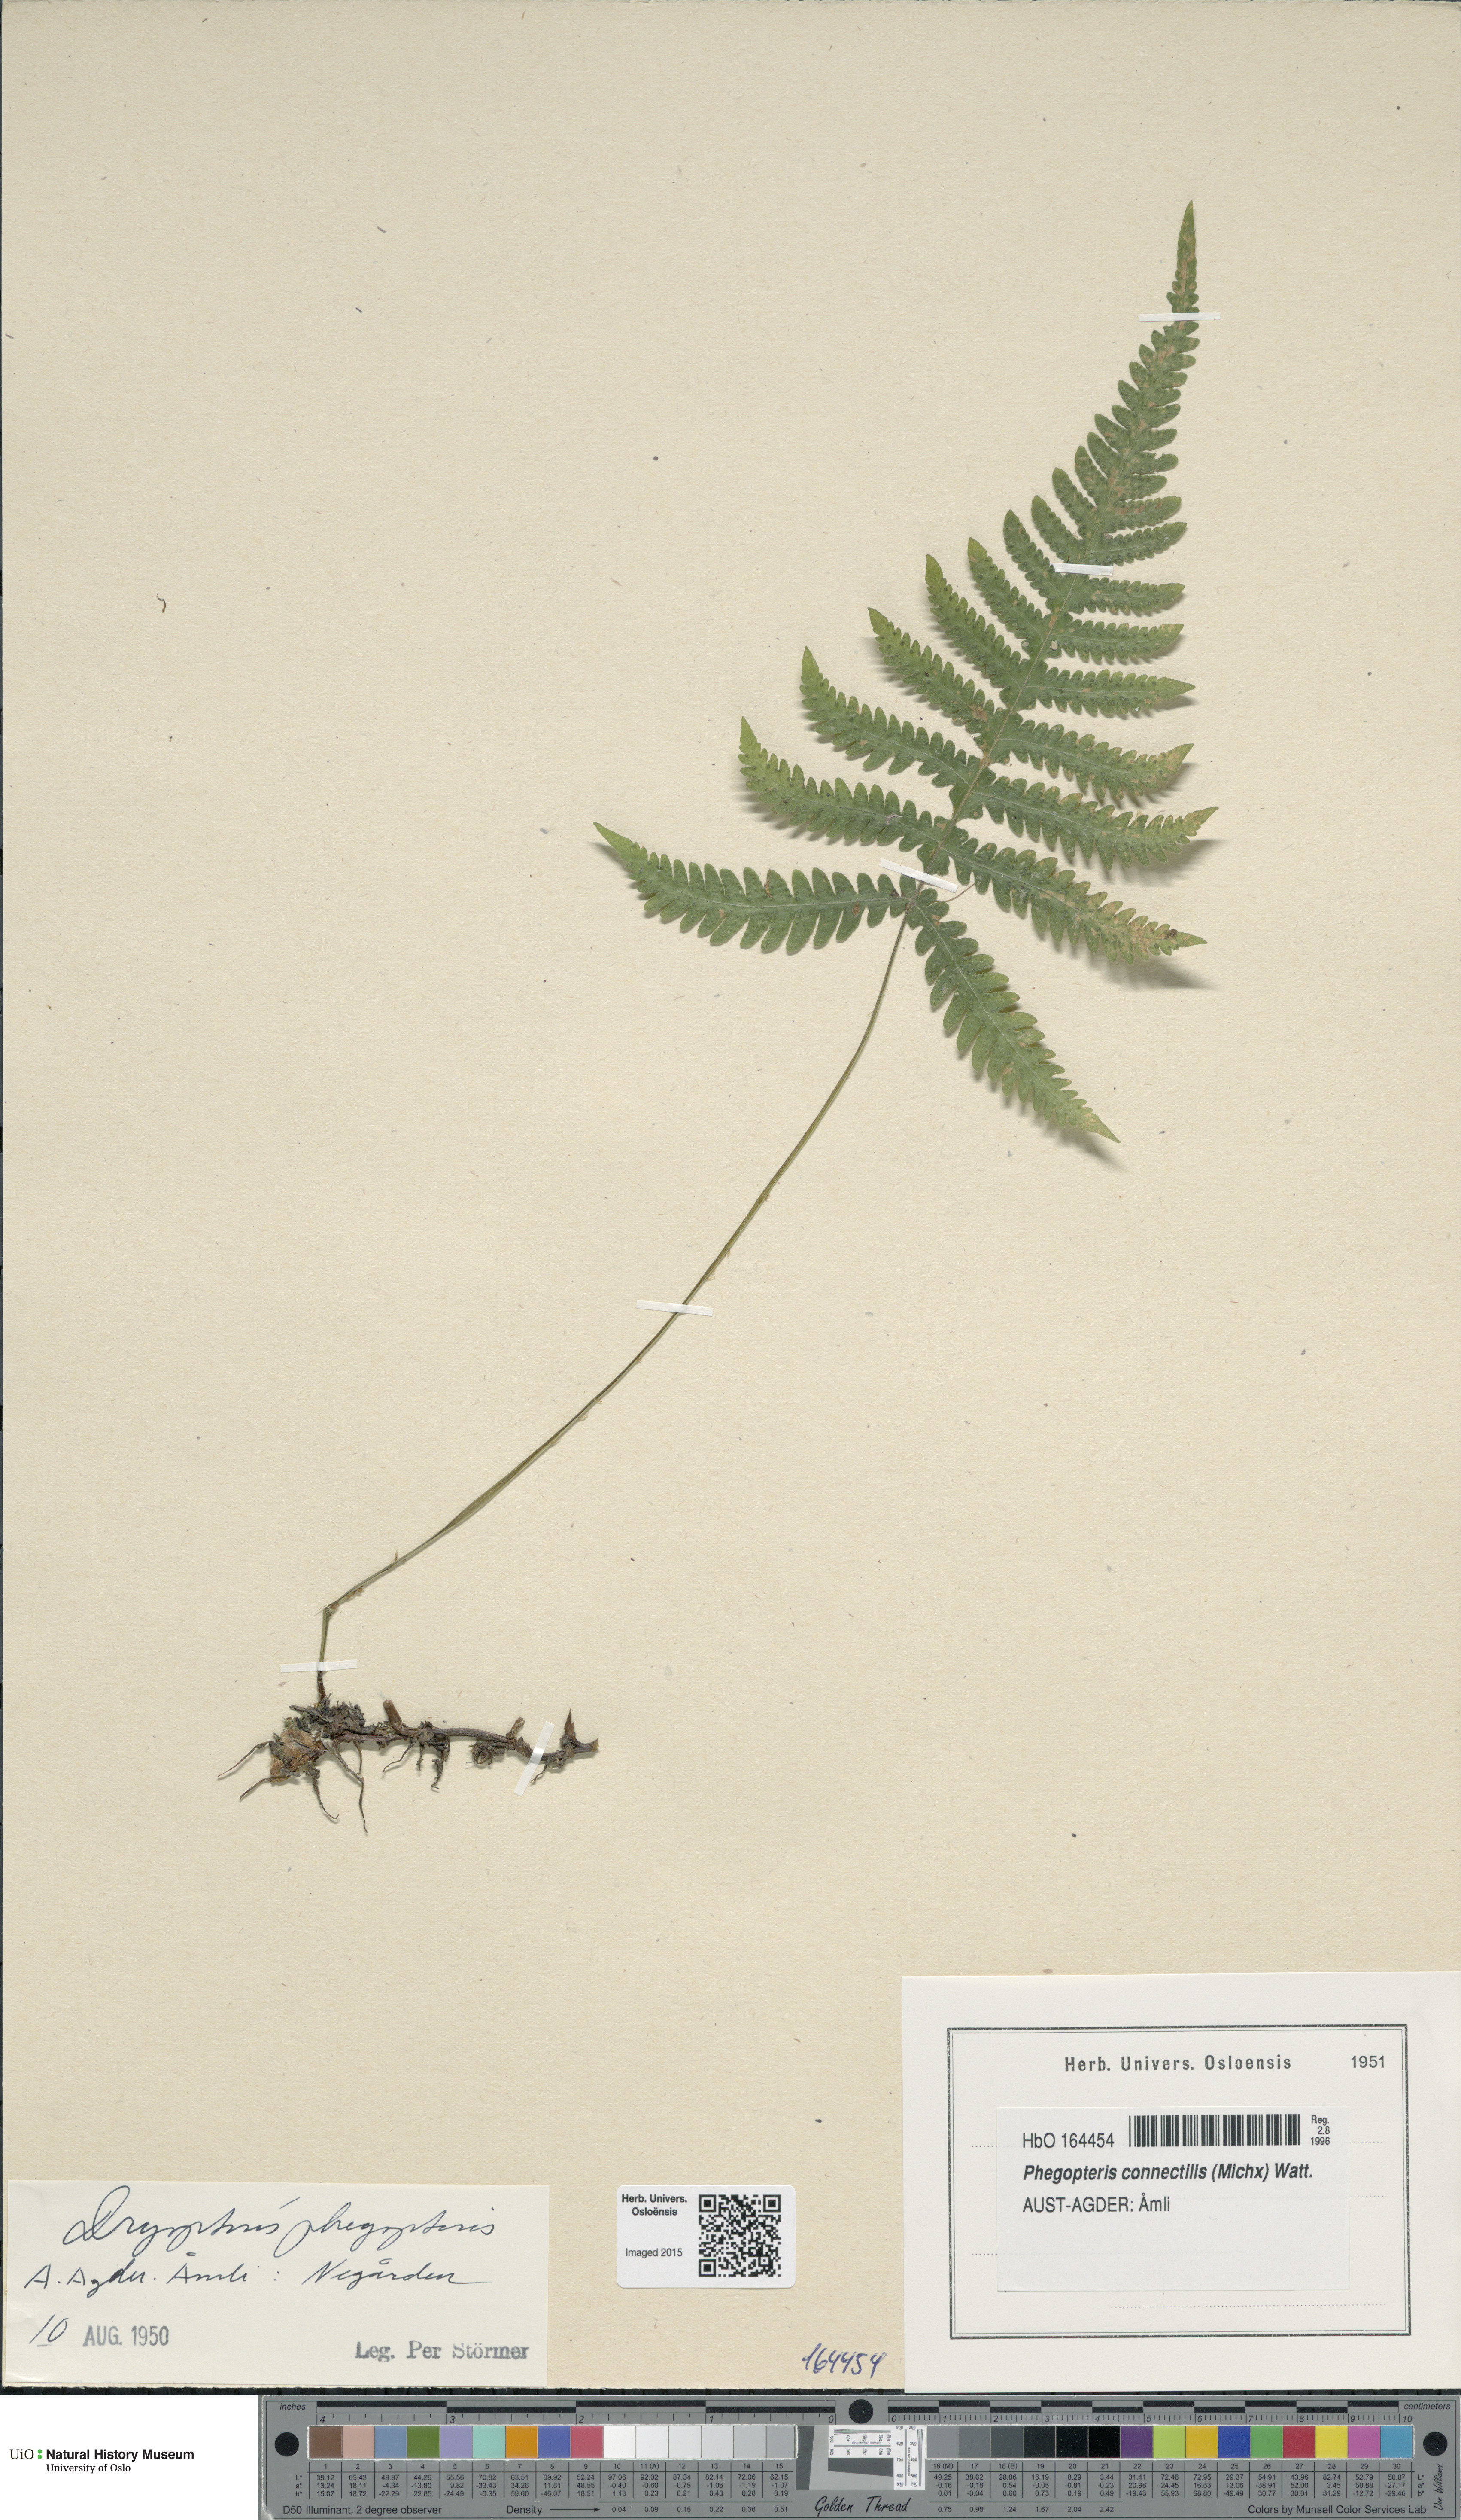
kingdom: Plantae
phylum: Tracheophyta
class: Polypodiopsida
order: Polypodiales
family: Thelypteridaceae
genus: Phegopteris
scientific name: Phegopteris connectilis
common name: Beech fern
